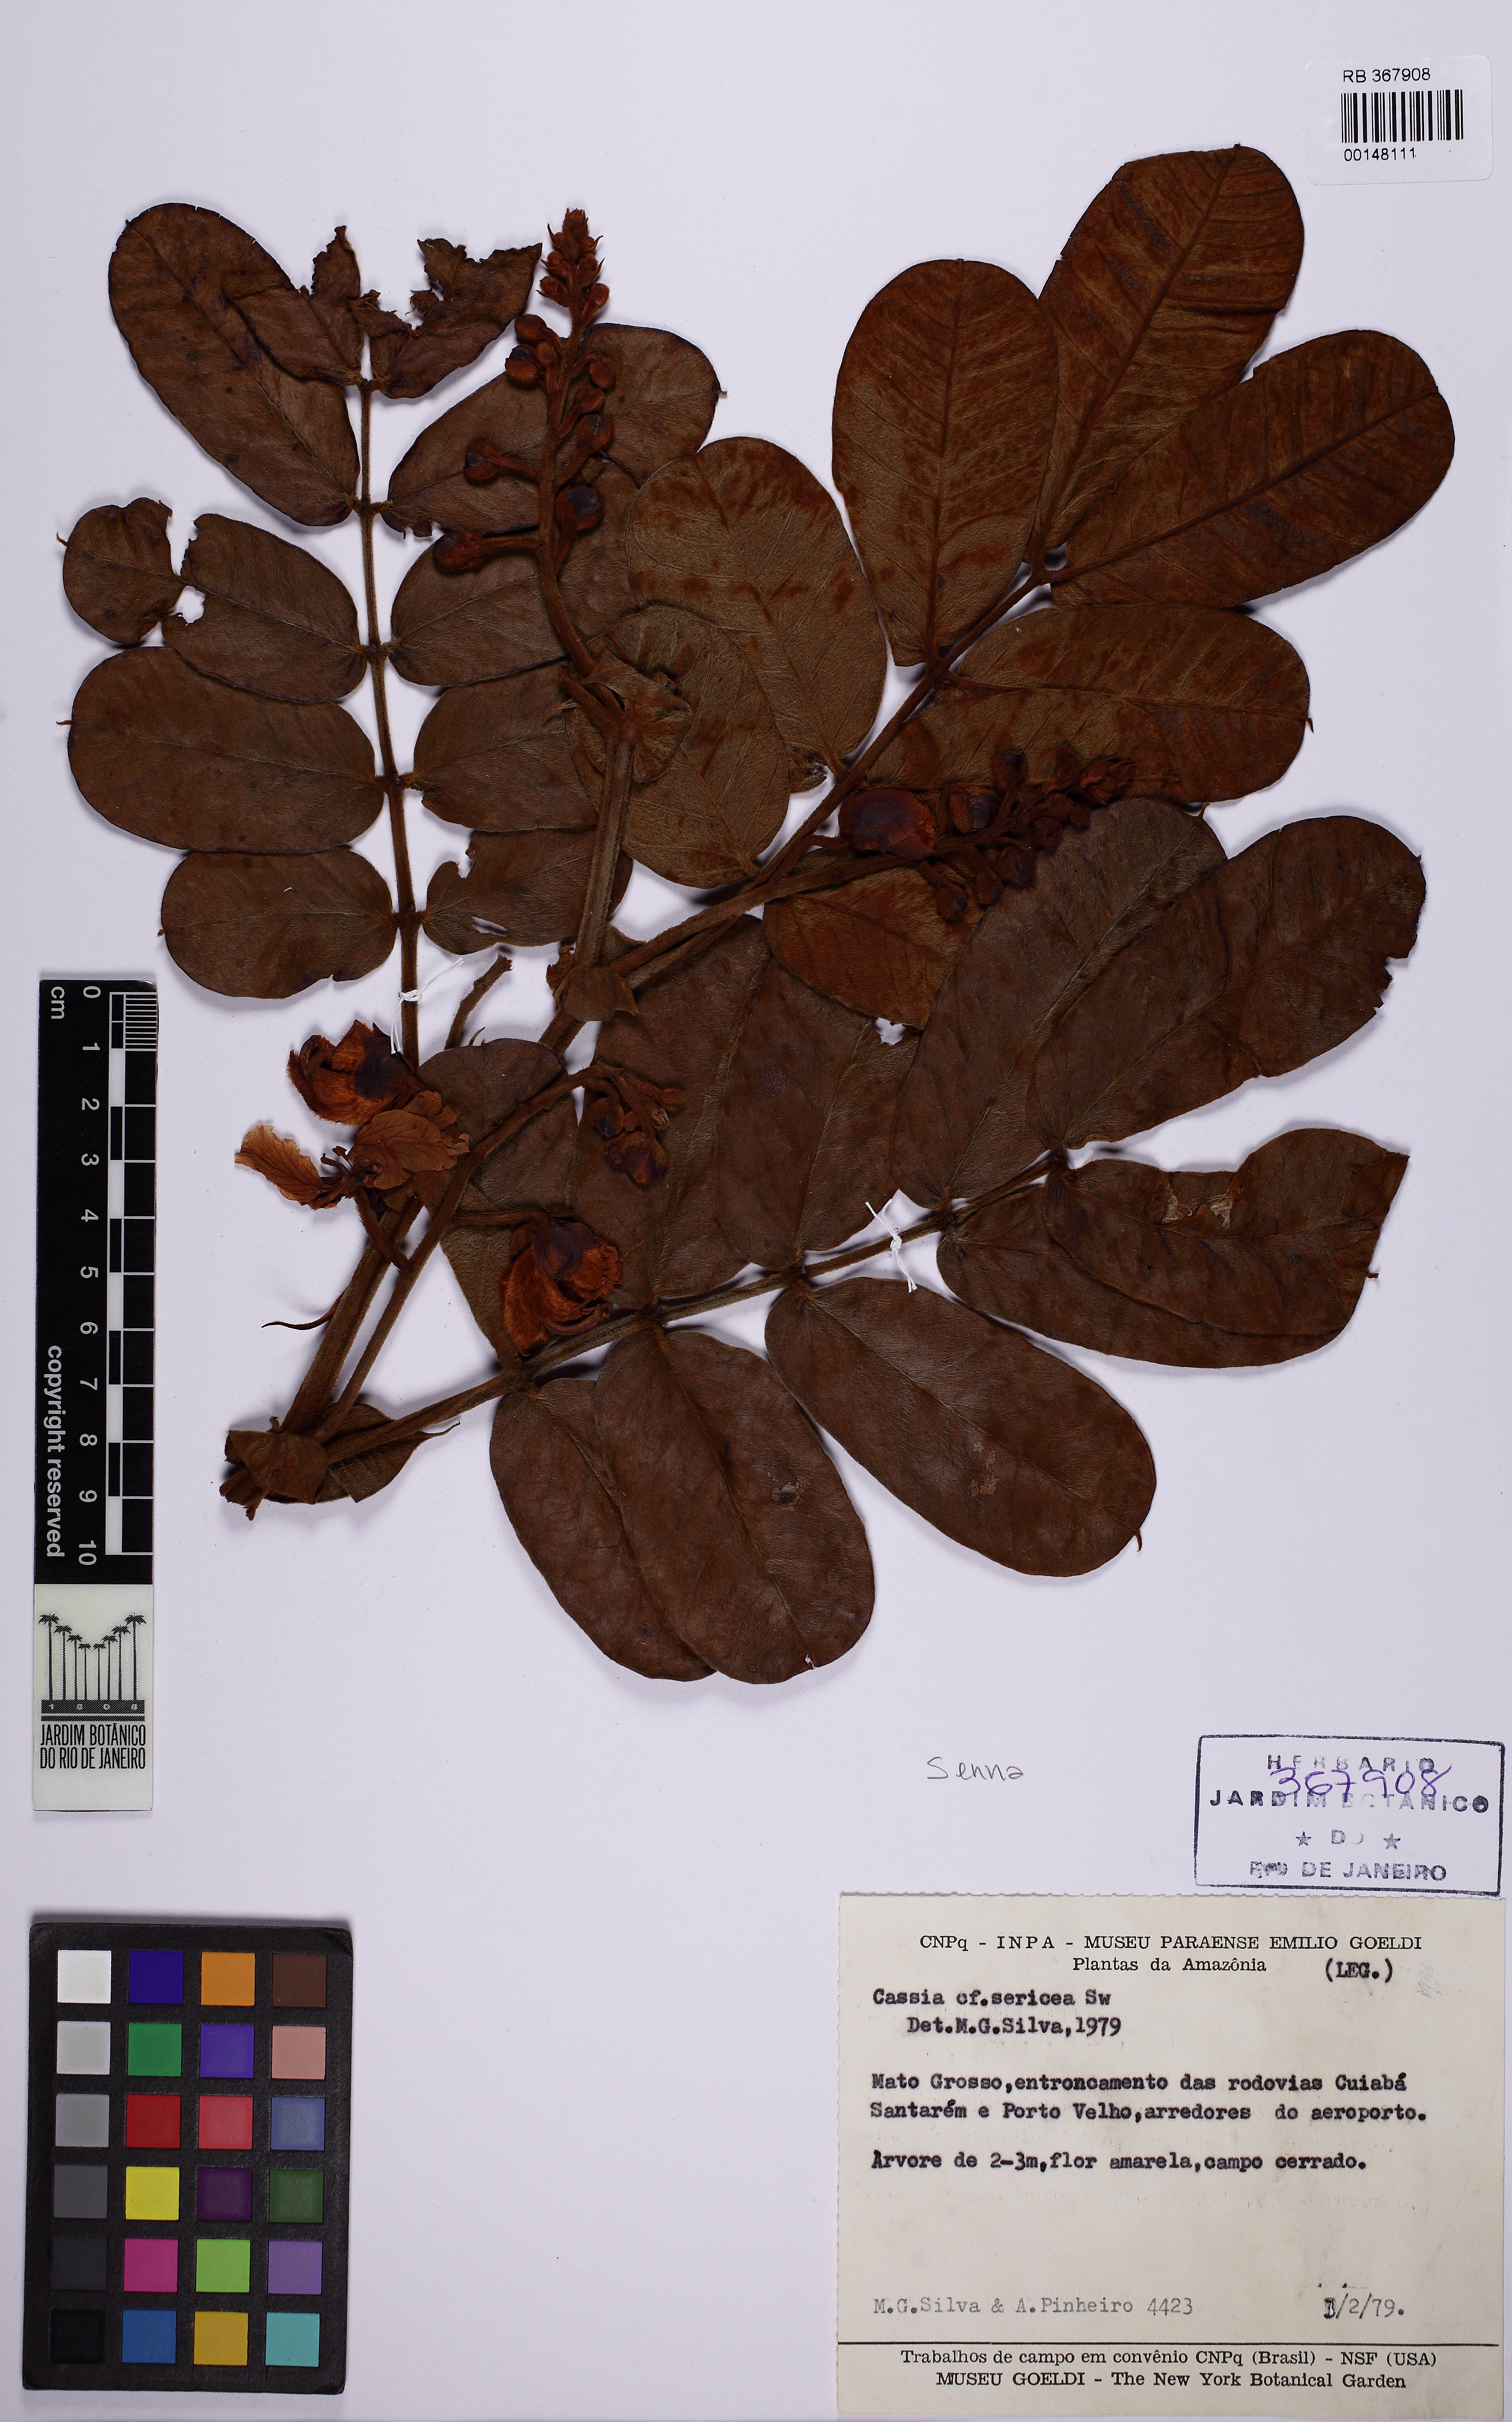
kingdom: Plantae
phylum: Tracheophyta
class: Magnoliopsida
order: Fabales
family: Fabaceae
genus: Senna
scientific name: Senna velutina
